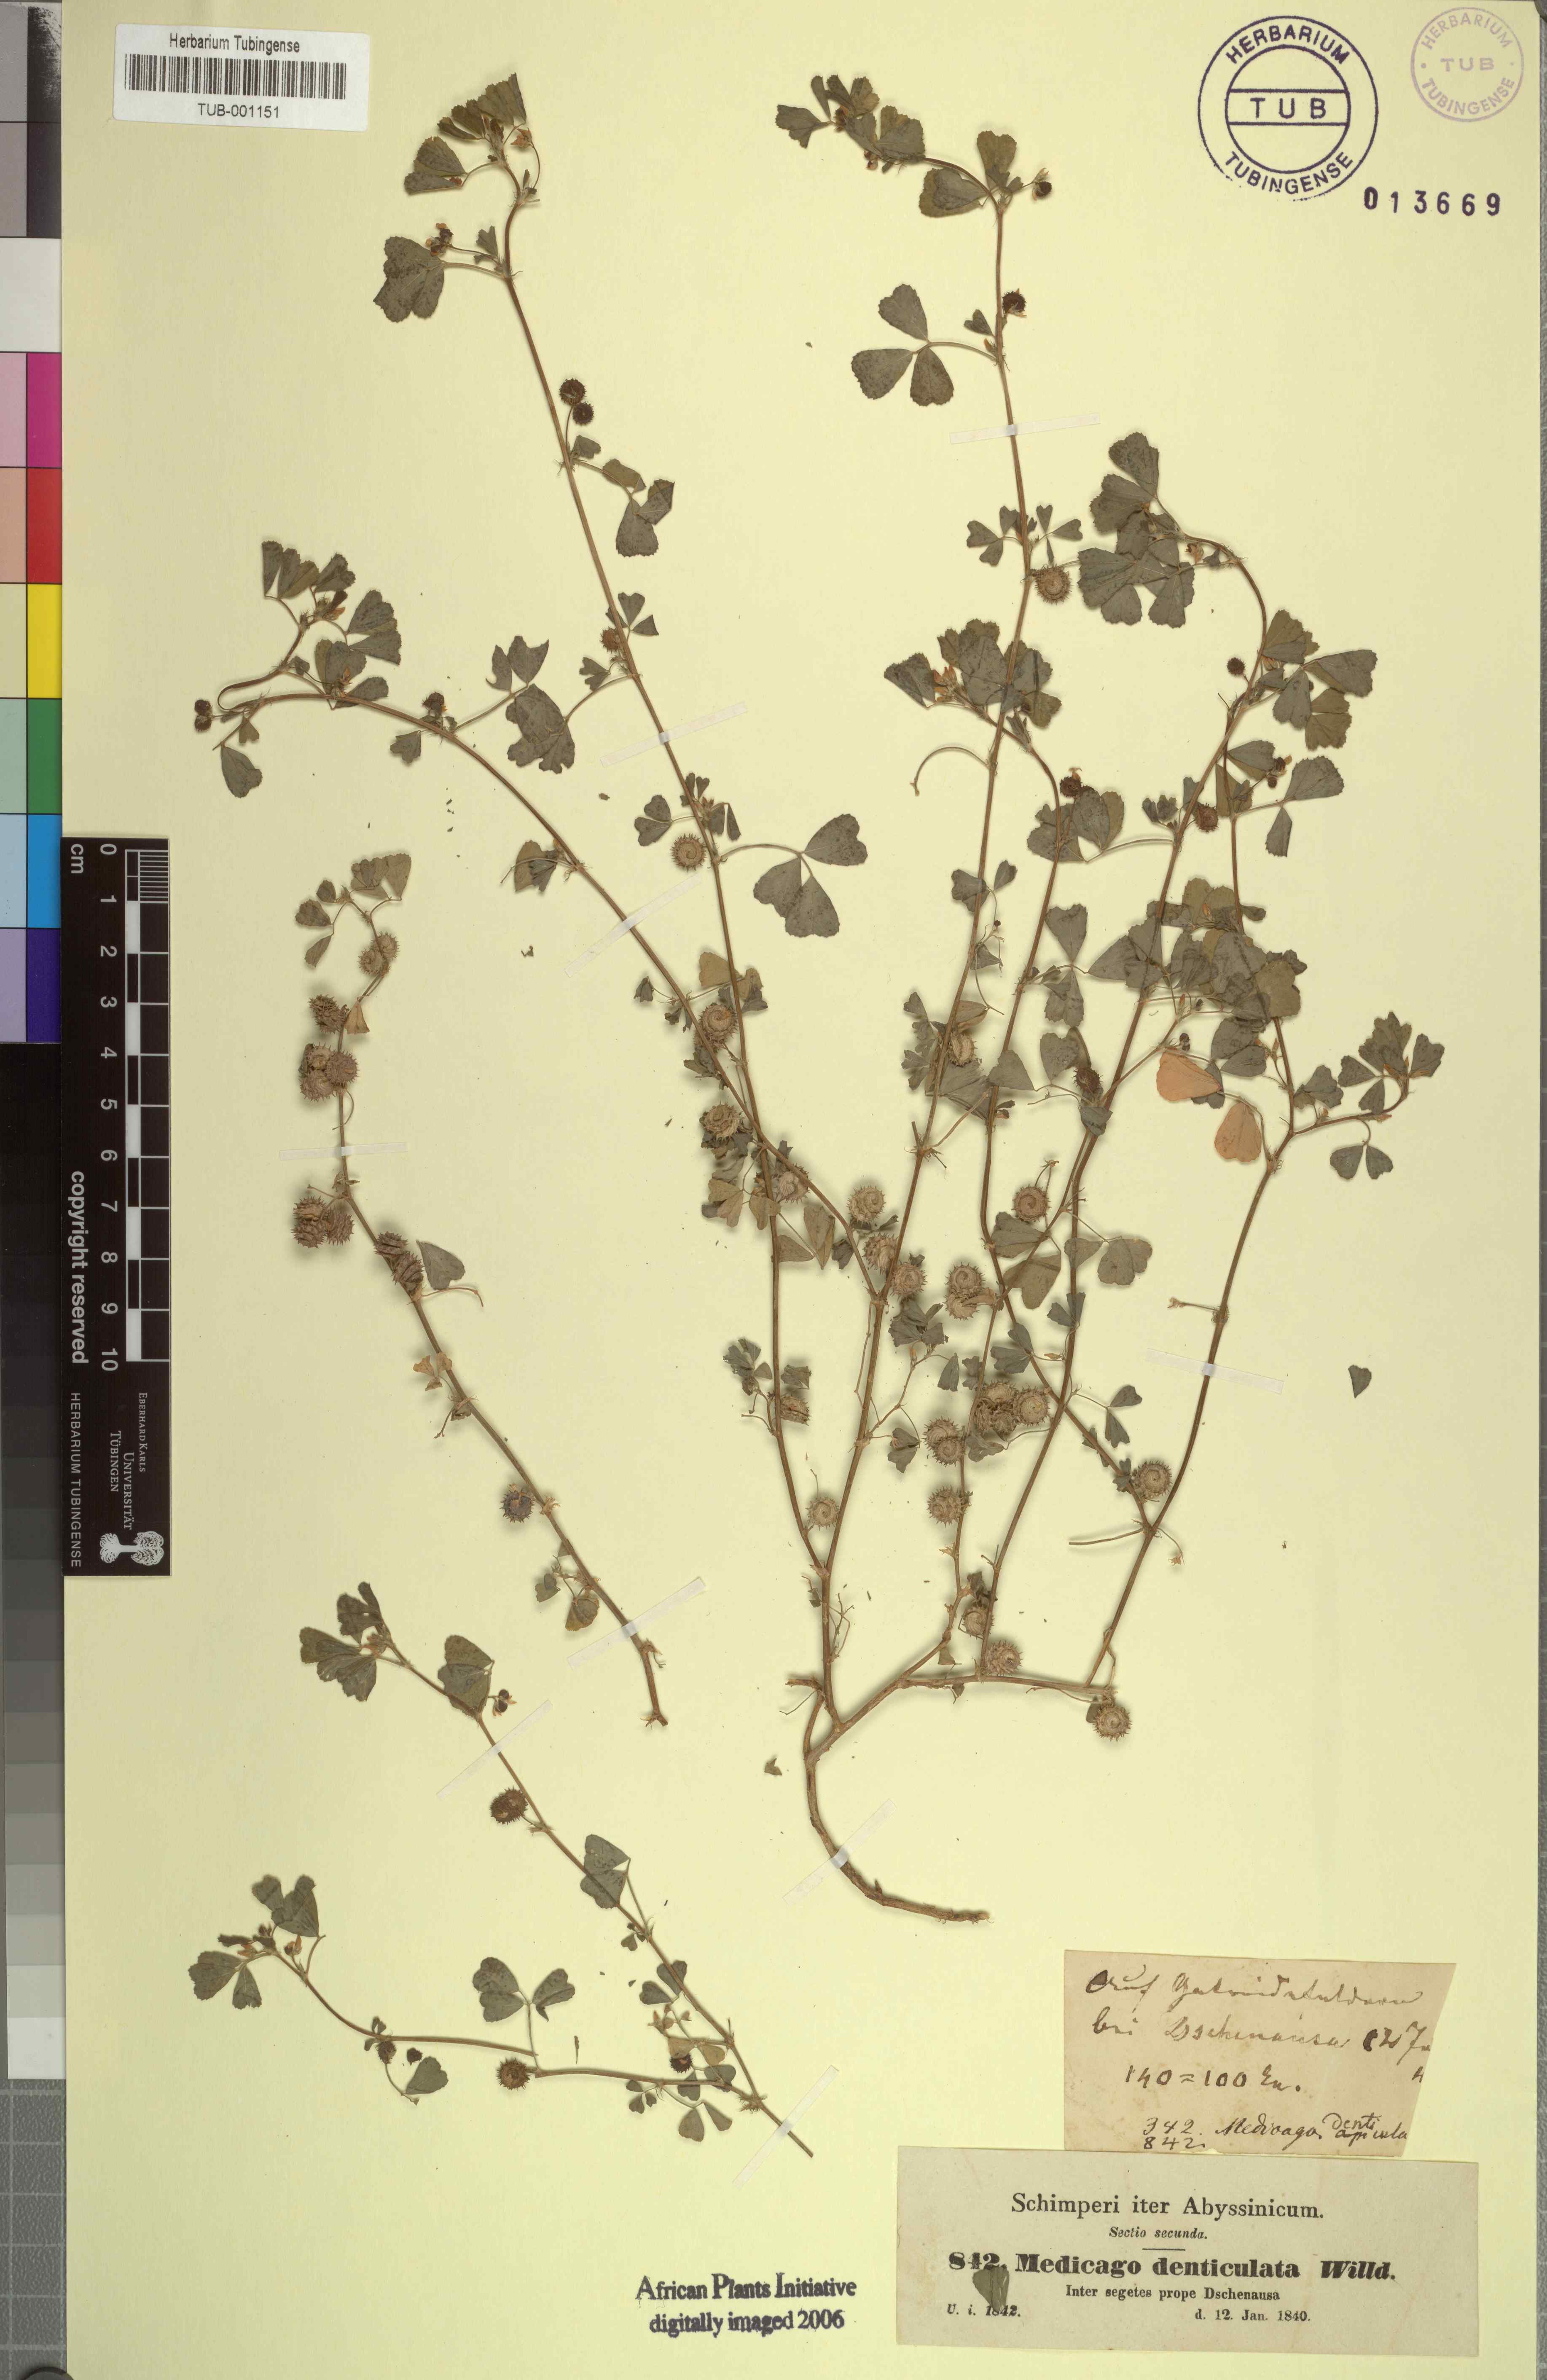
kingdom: Plantae
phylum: Tracheophyta
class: Magnoliopsida
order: Fabales
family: Fabaceae
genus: Medicago
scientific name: Medicago polymorpha
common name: Burclover
